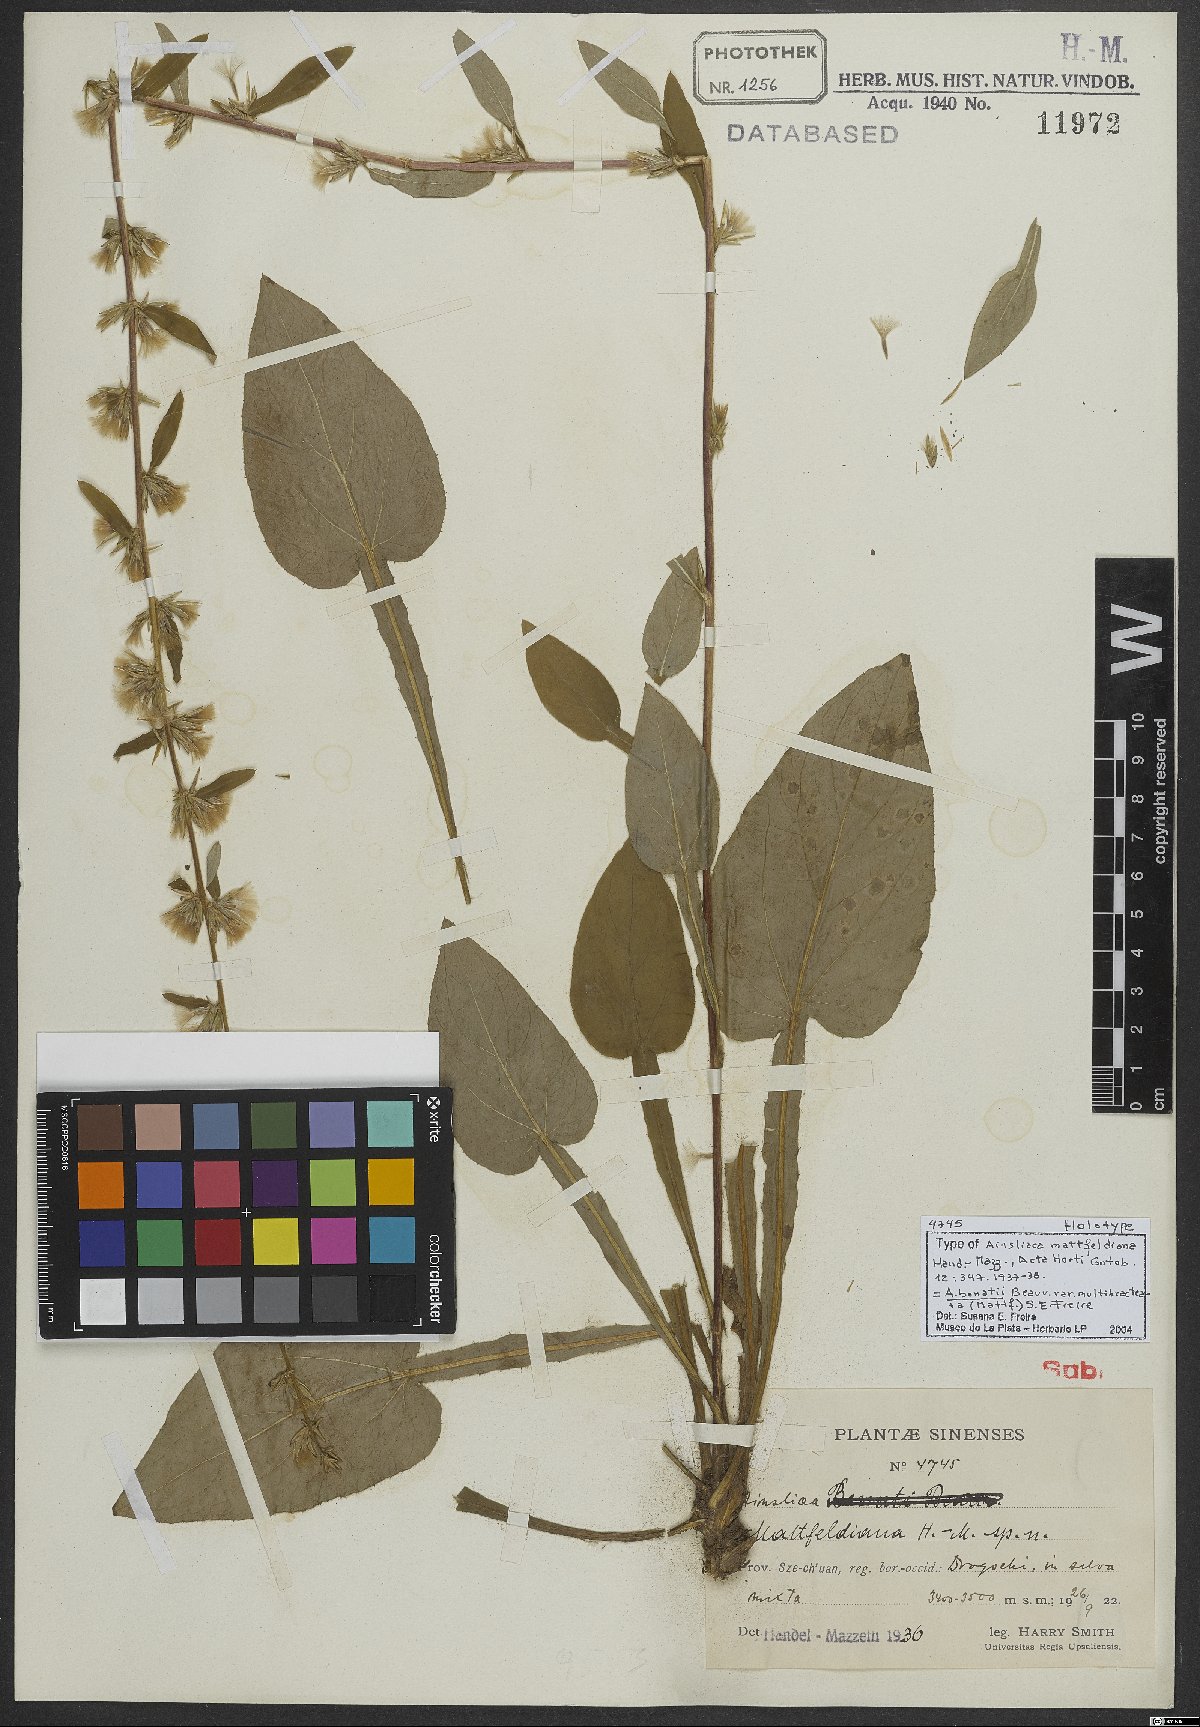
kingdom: Plantae
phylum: Tracheophyta
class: Magnoliopsida
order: Asterales
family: Asteraceae
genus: Ainsliaea
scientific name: Ainsliaea bonatii
